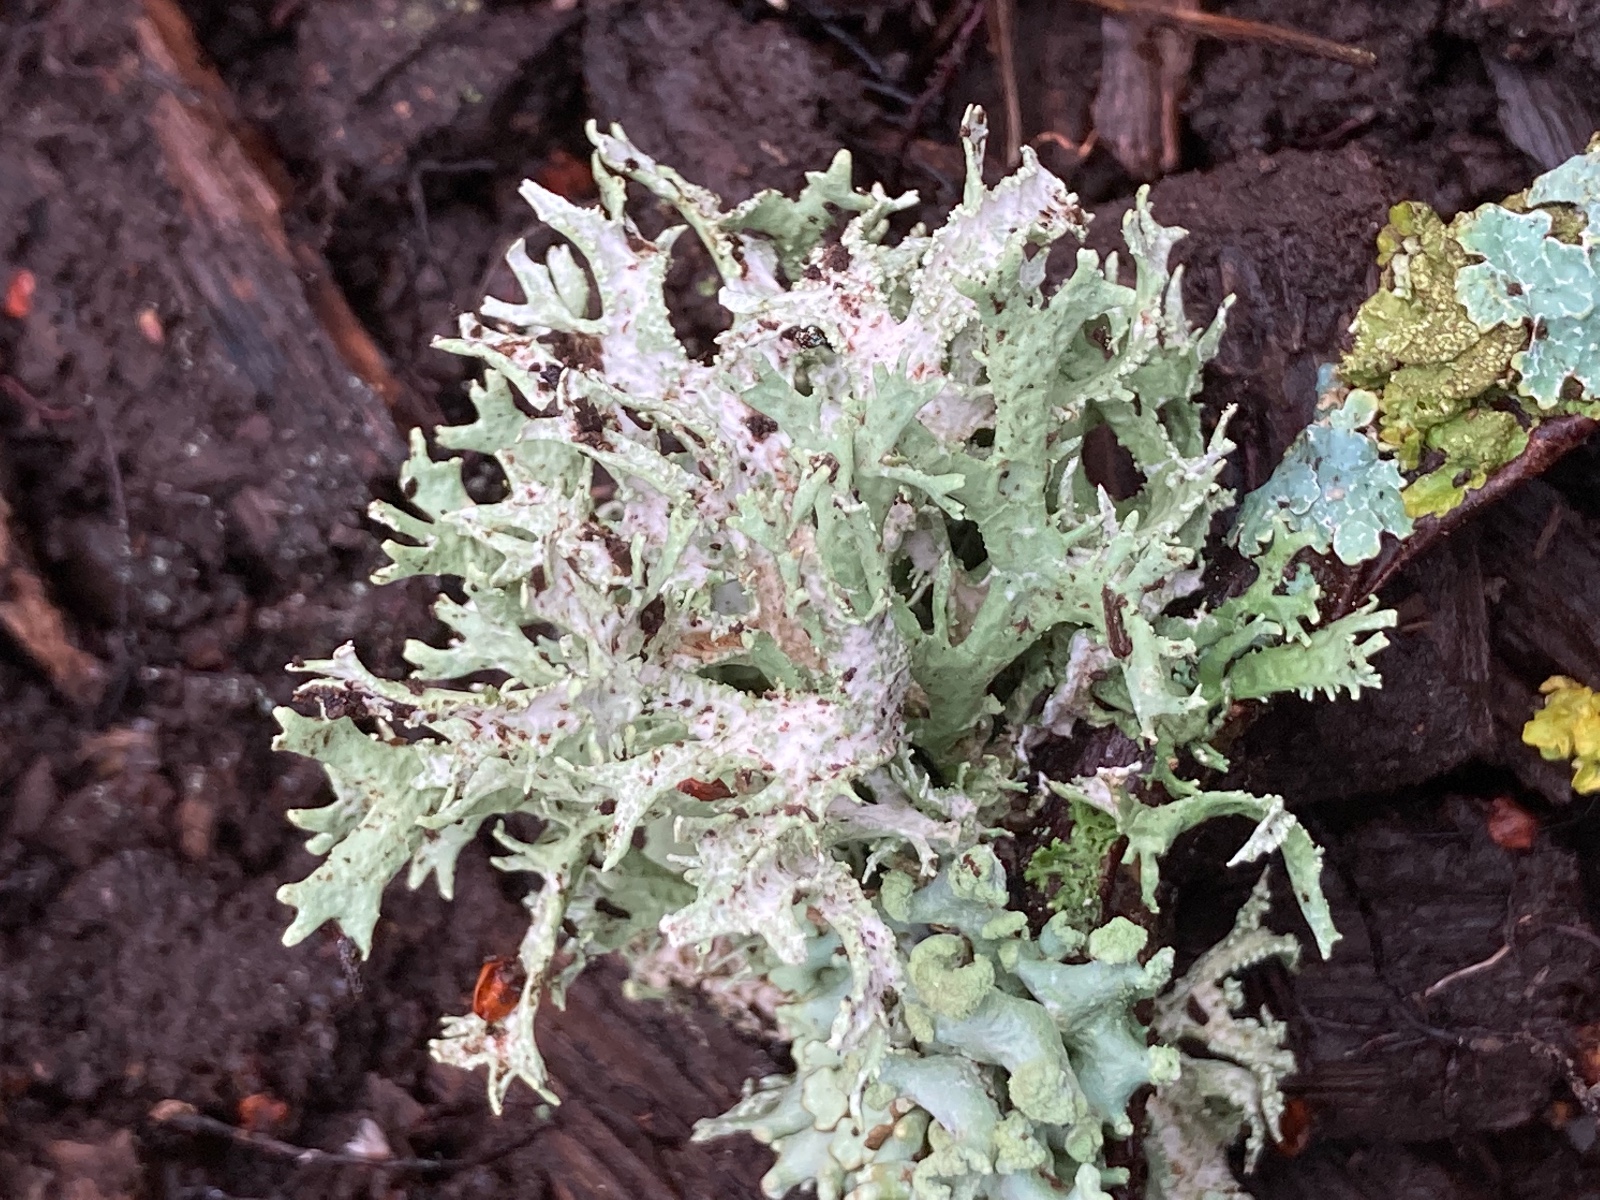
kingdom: Fungi
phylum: Ascomycota
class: Lecanoromycetes
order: Lecanorales
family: Parmeliaceae
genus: Evernia
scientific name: Evernia prunastri
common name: almindelig slåenlav
